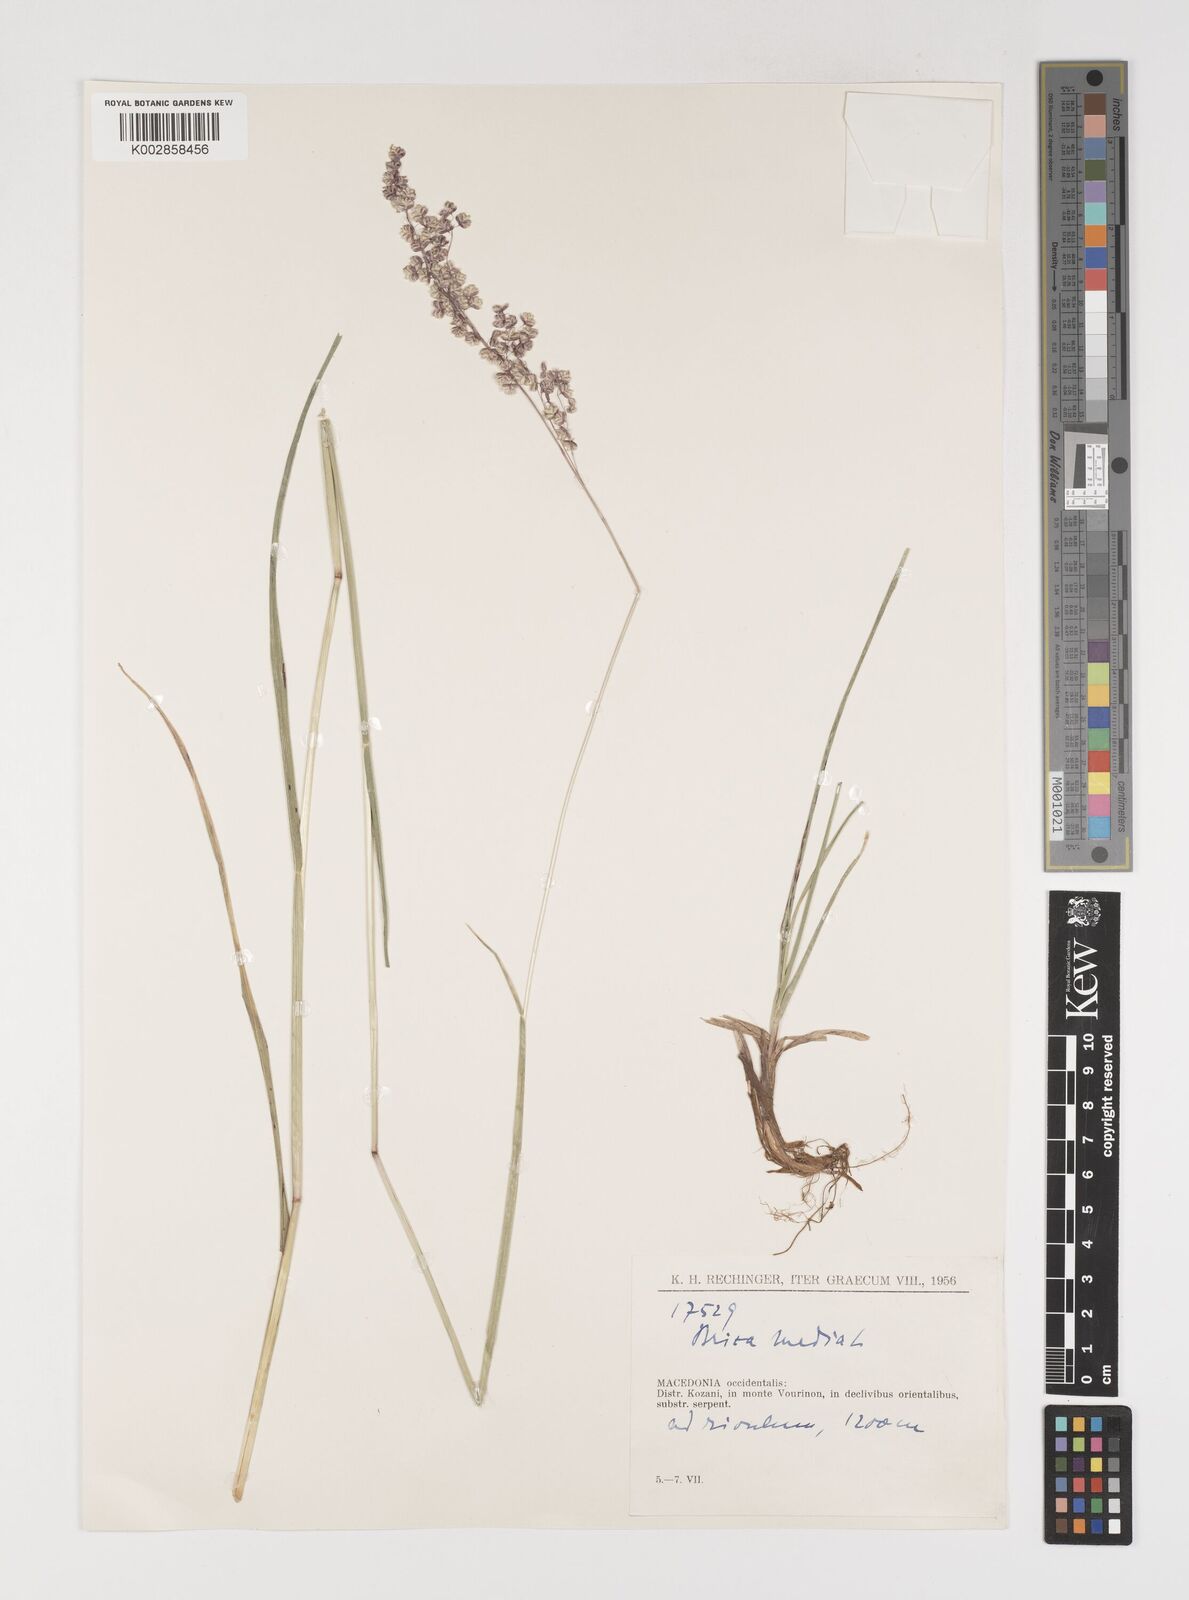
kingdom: Plantae
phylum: Tracheophyta
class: Liliopsida
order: Poales
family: Poaceae
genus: Briza
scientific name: Briza media
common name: Quaking grass
